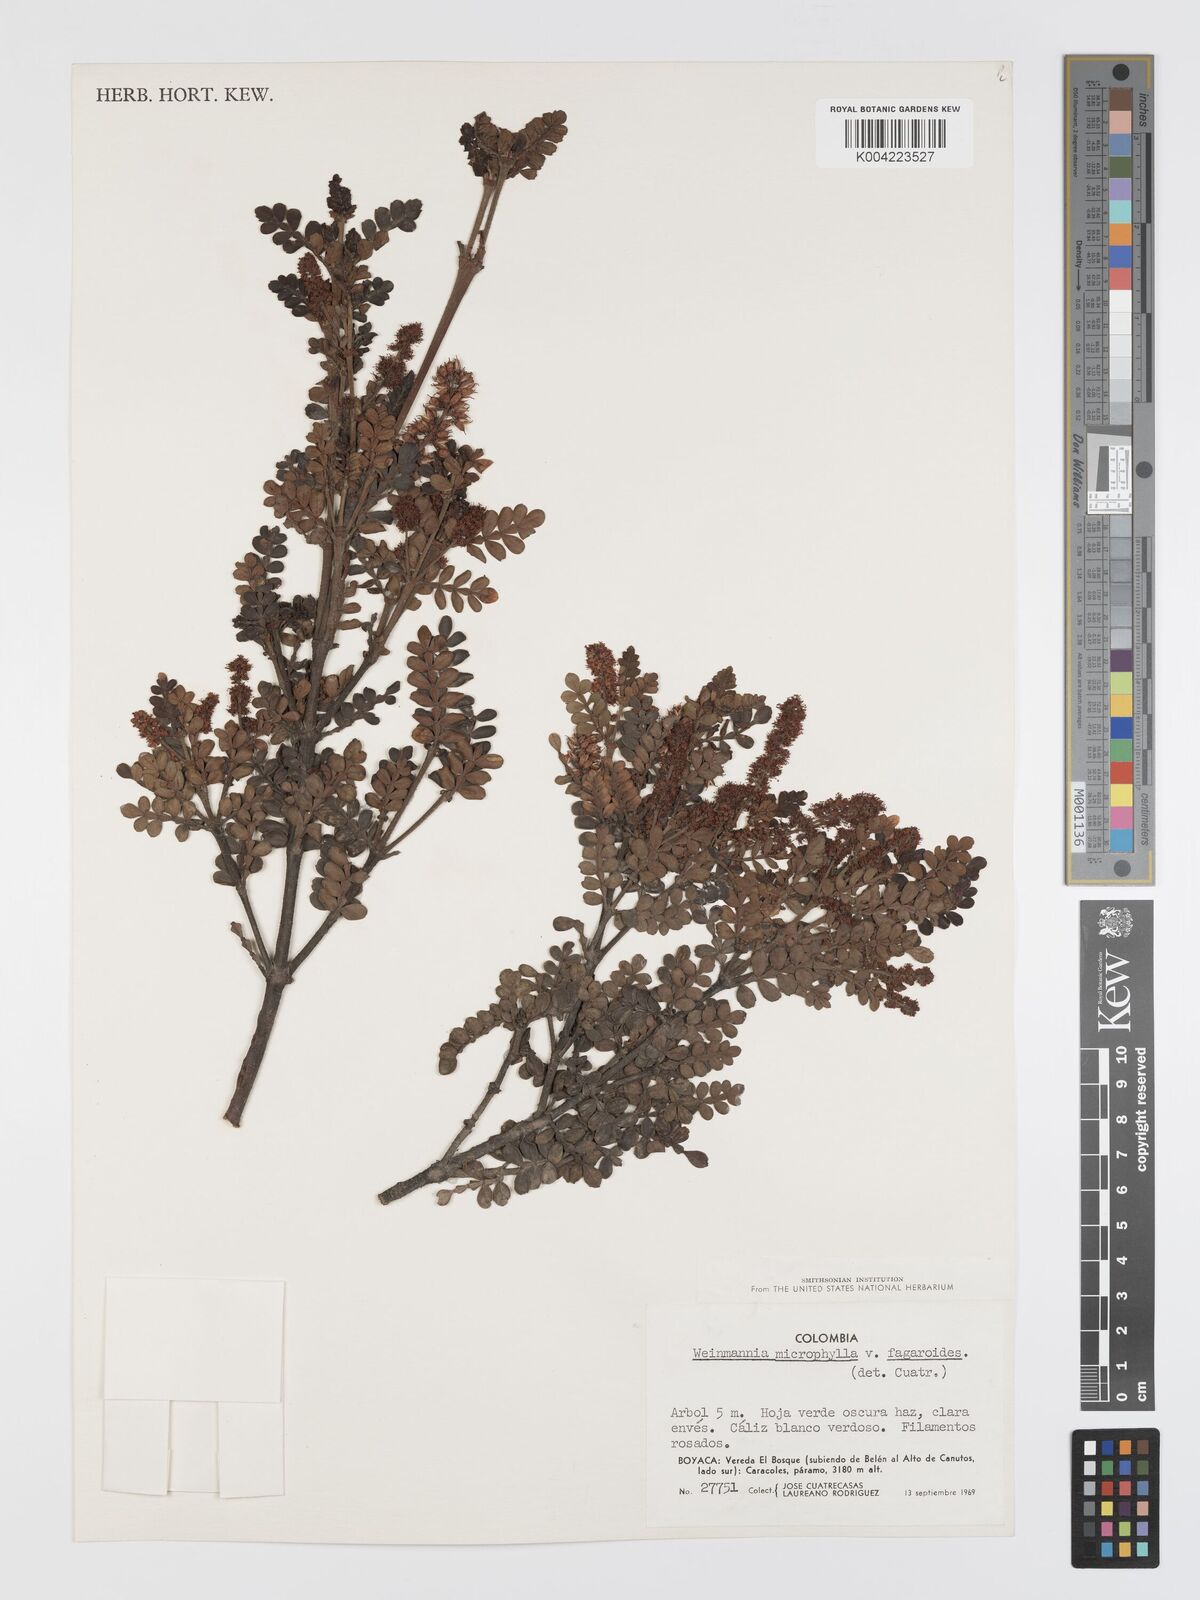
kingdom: Plantae
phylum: Tracheophyta
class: Magnoliopsida
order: Oxalidales
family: Cunoniaceae
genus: Weinmannia
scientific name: Weinmannia fagaroides
